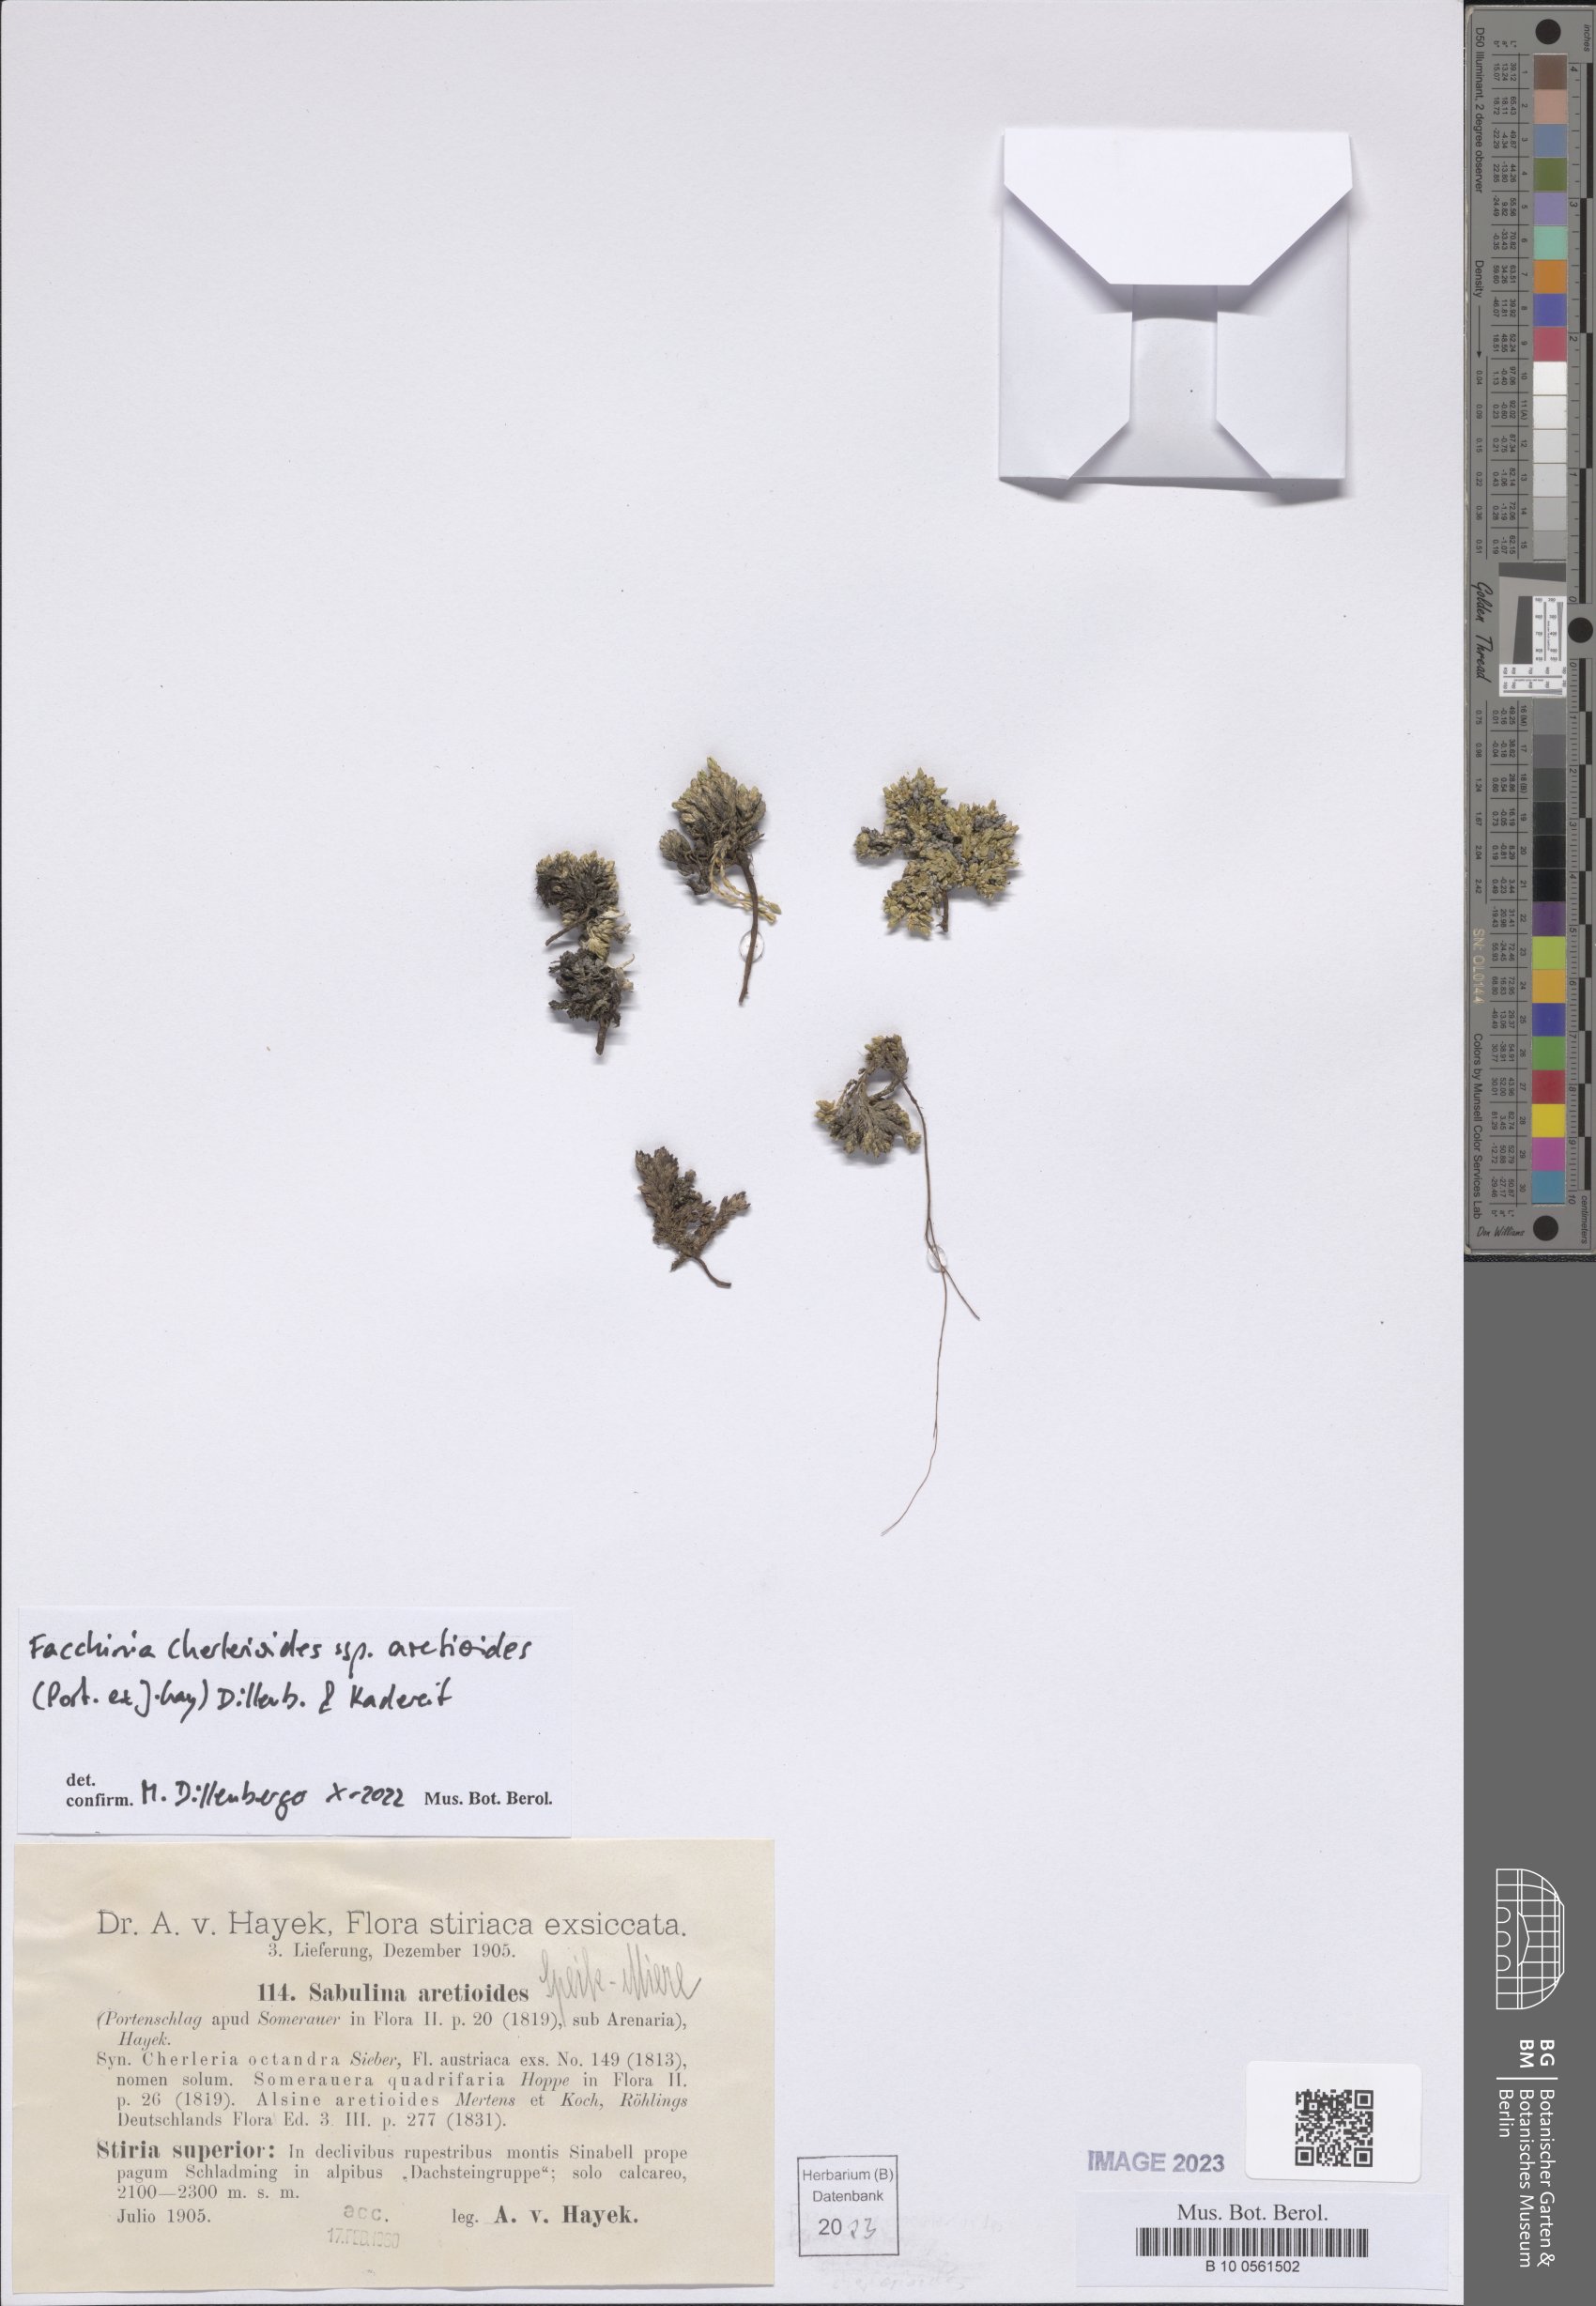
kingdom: Plantae
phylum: Tracheophyta
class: Magnoliopsida
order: Caryophyllales
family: Caryophyllaceae
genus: Facchinia
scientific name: Facchinia cherlerioides
